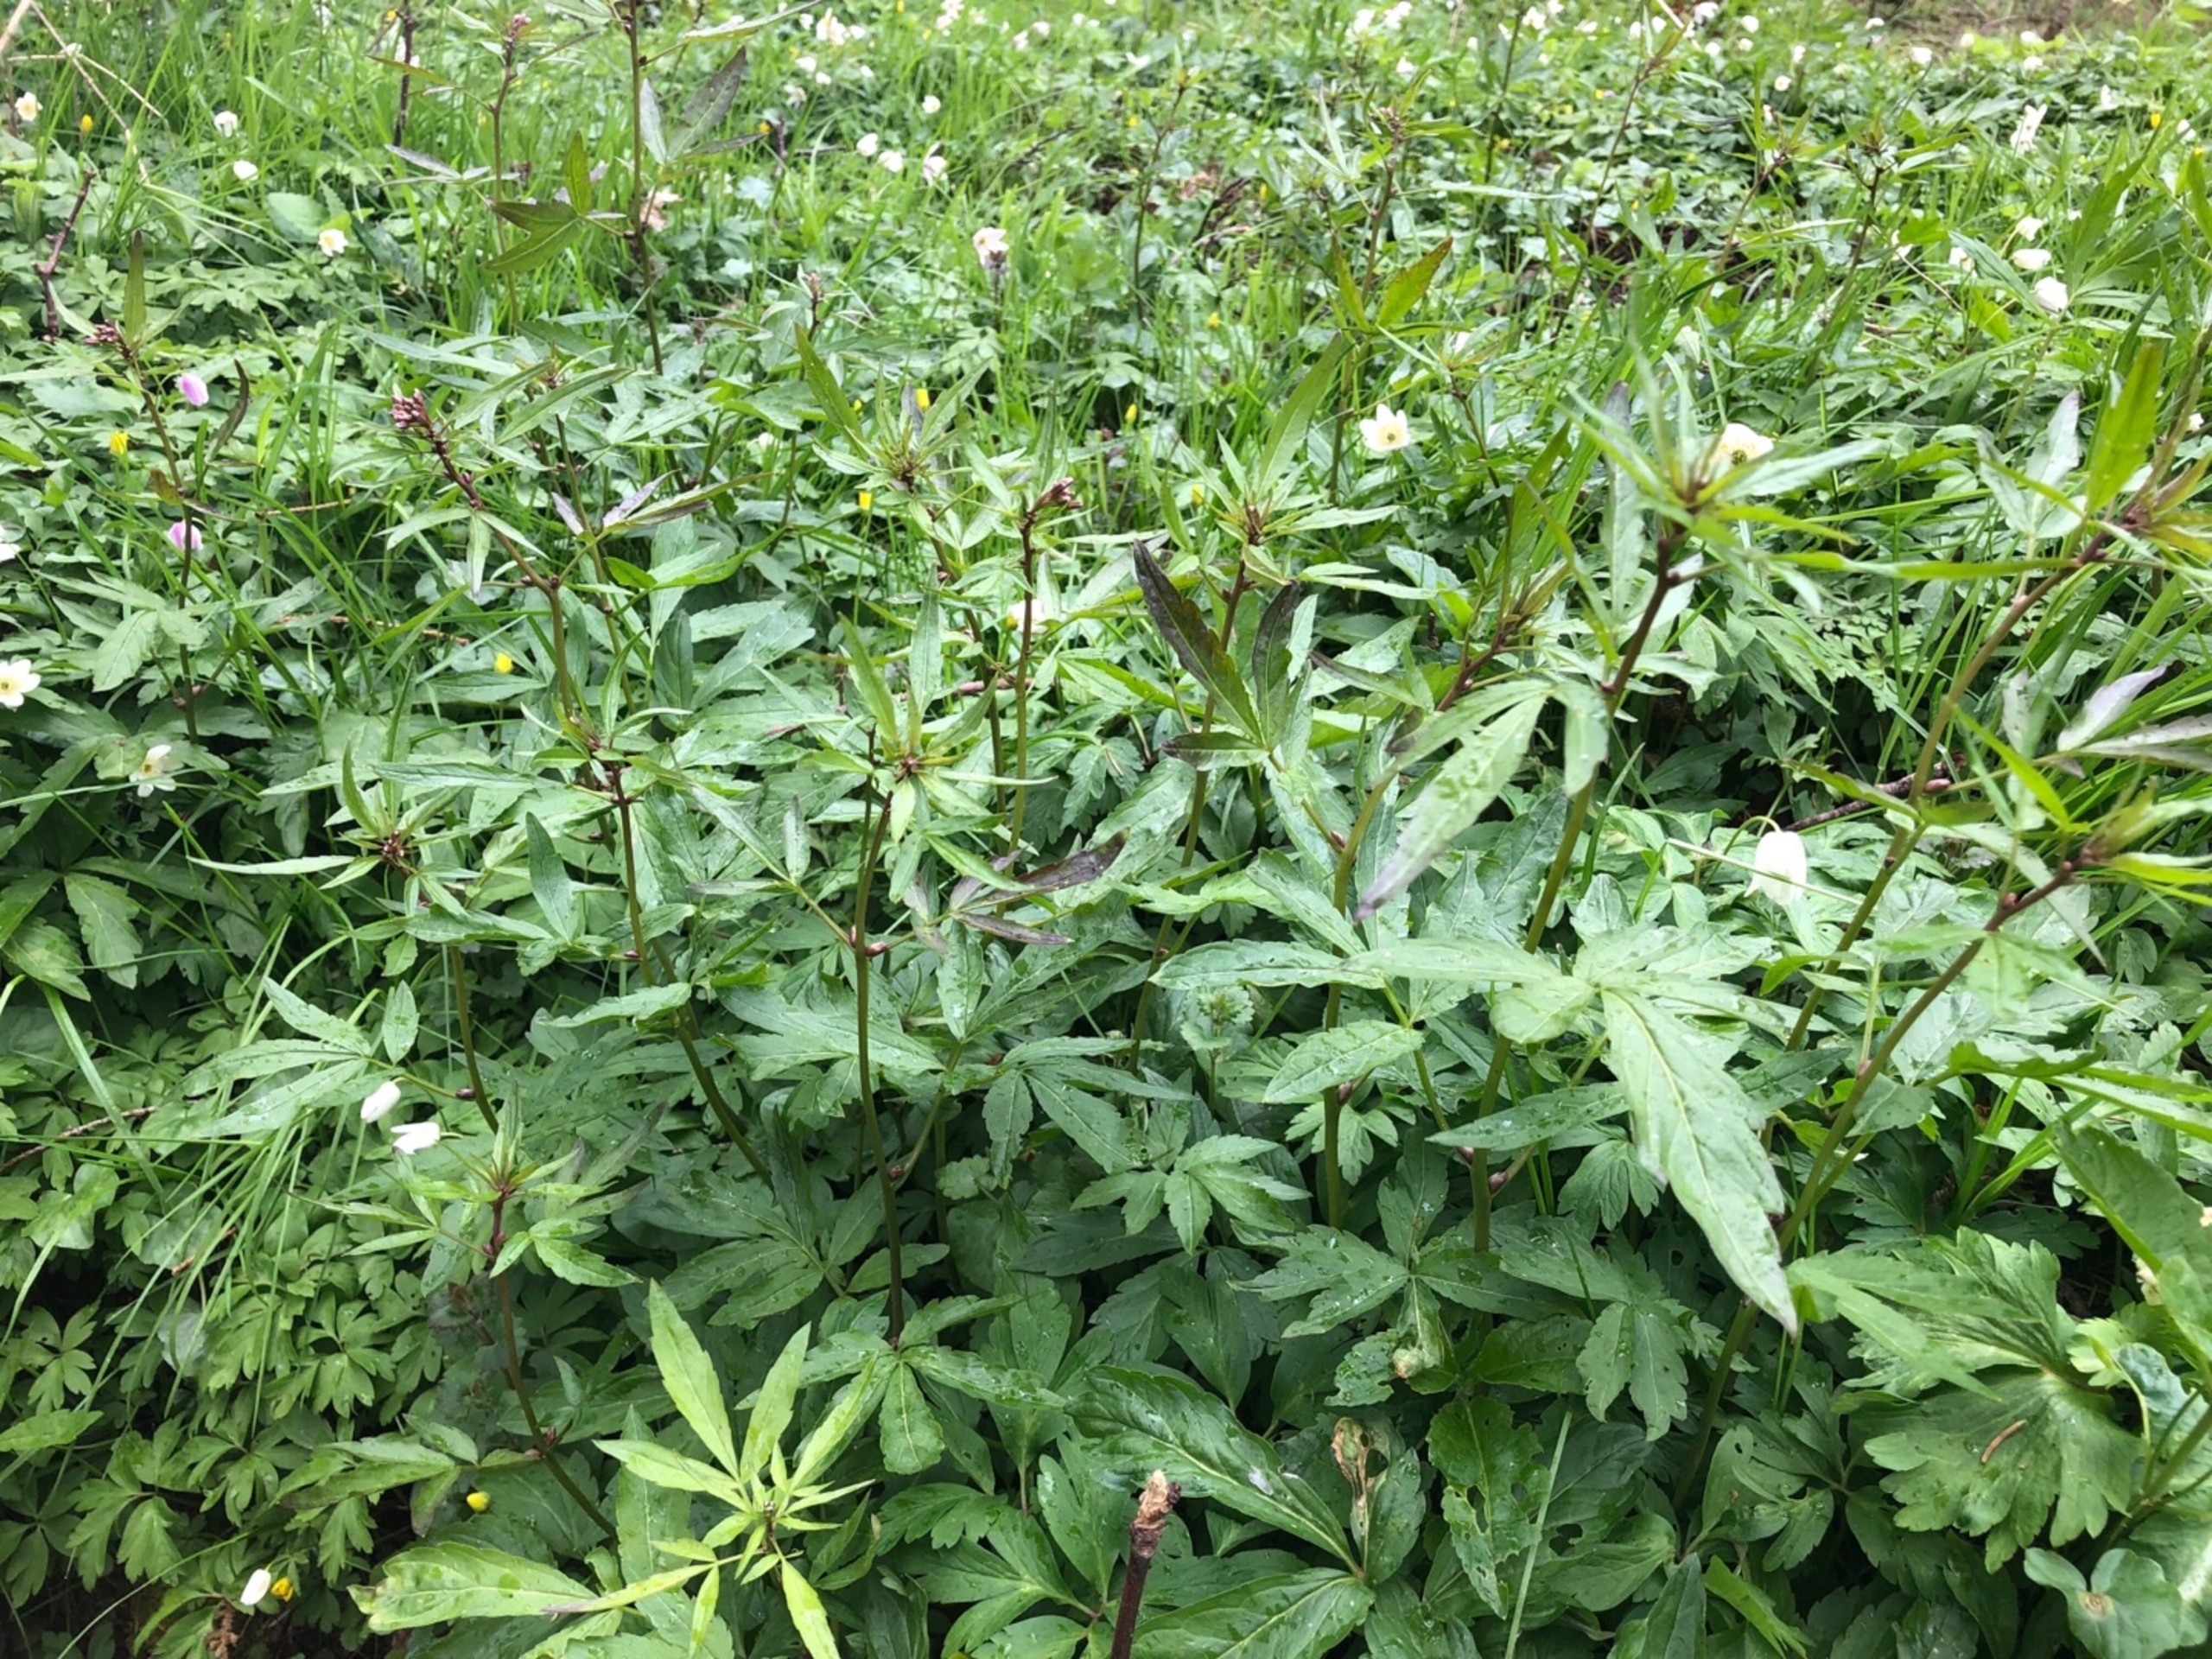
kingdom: Plantae
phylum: Tracheophyta
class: Magnoliopsida
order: Brassicales
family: Brassicaceae
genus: Cardamine
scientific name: Cardamine bulbifera
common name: Tandrod
